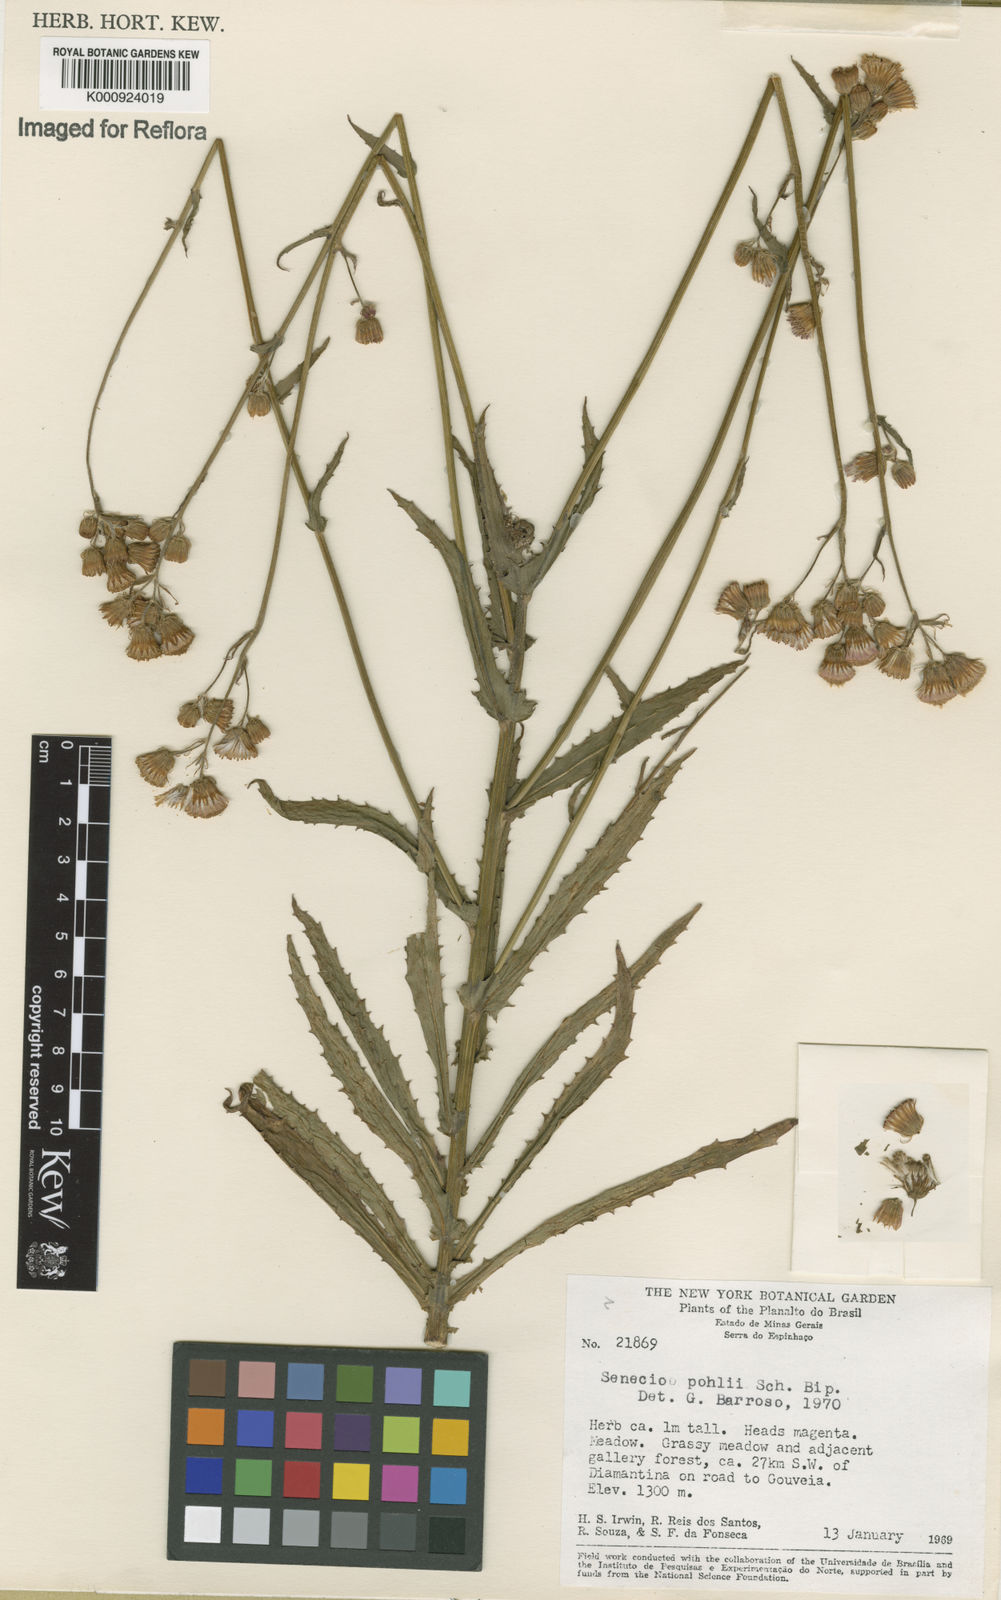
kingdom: Plantae
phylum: Tracheophyta
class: Magnoliopsida
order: Asterales
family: Asteraceae
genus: Pseudogynoxys
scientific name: Pseudogynoxys pohlii
